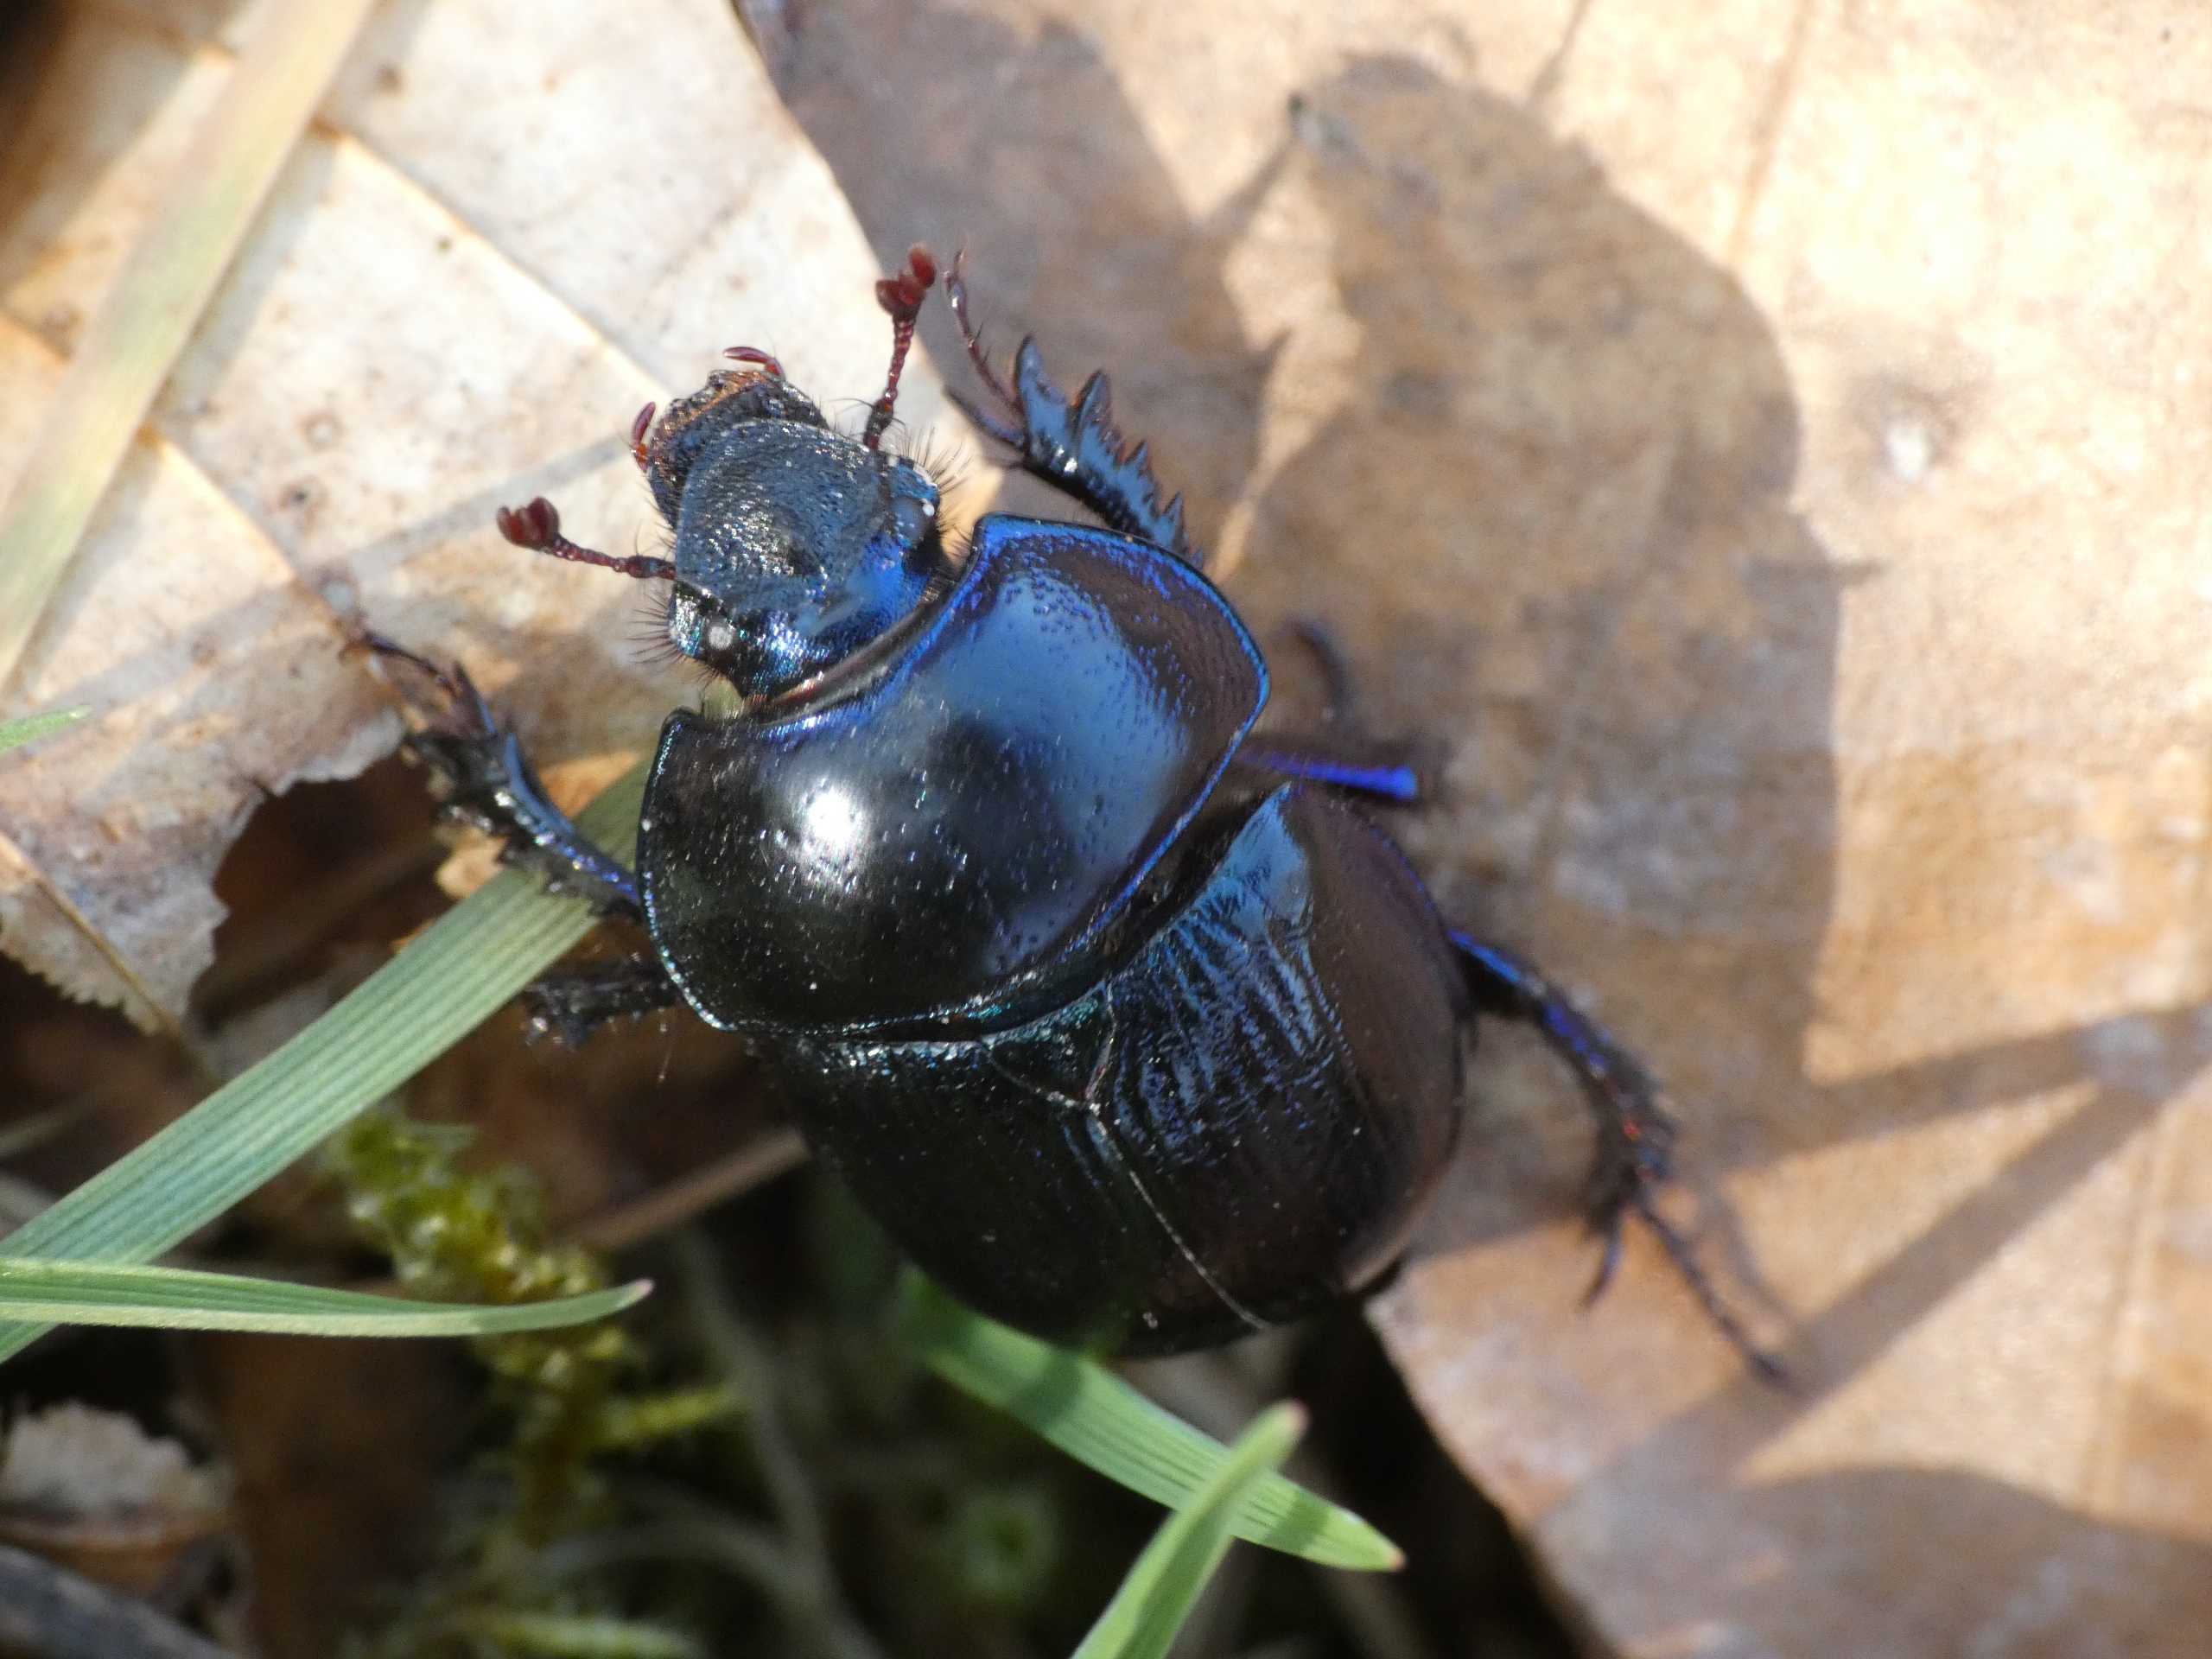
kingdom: Animalia
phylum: Arthropoda
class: Insecta
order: Coleoptera
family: Geotrupidae
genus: Anoplotrupes
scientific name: Anoplotrupes stercorosus
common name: Skovskarnbasse
